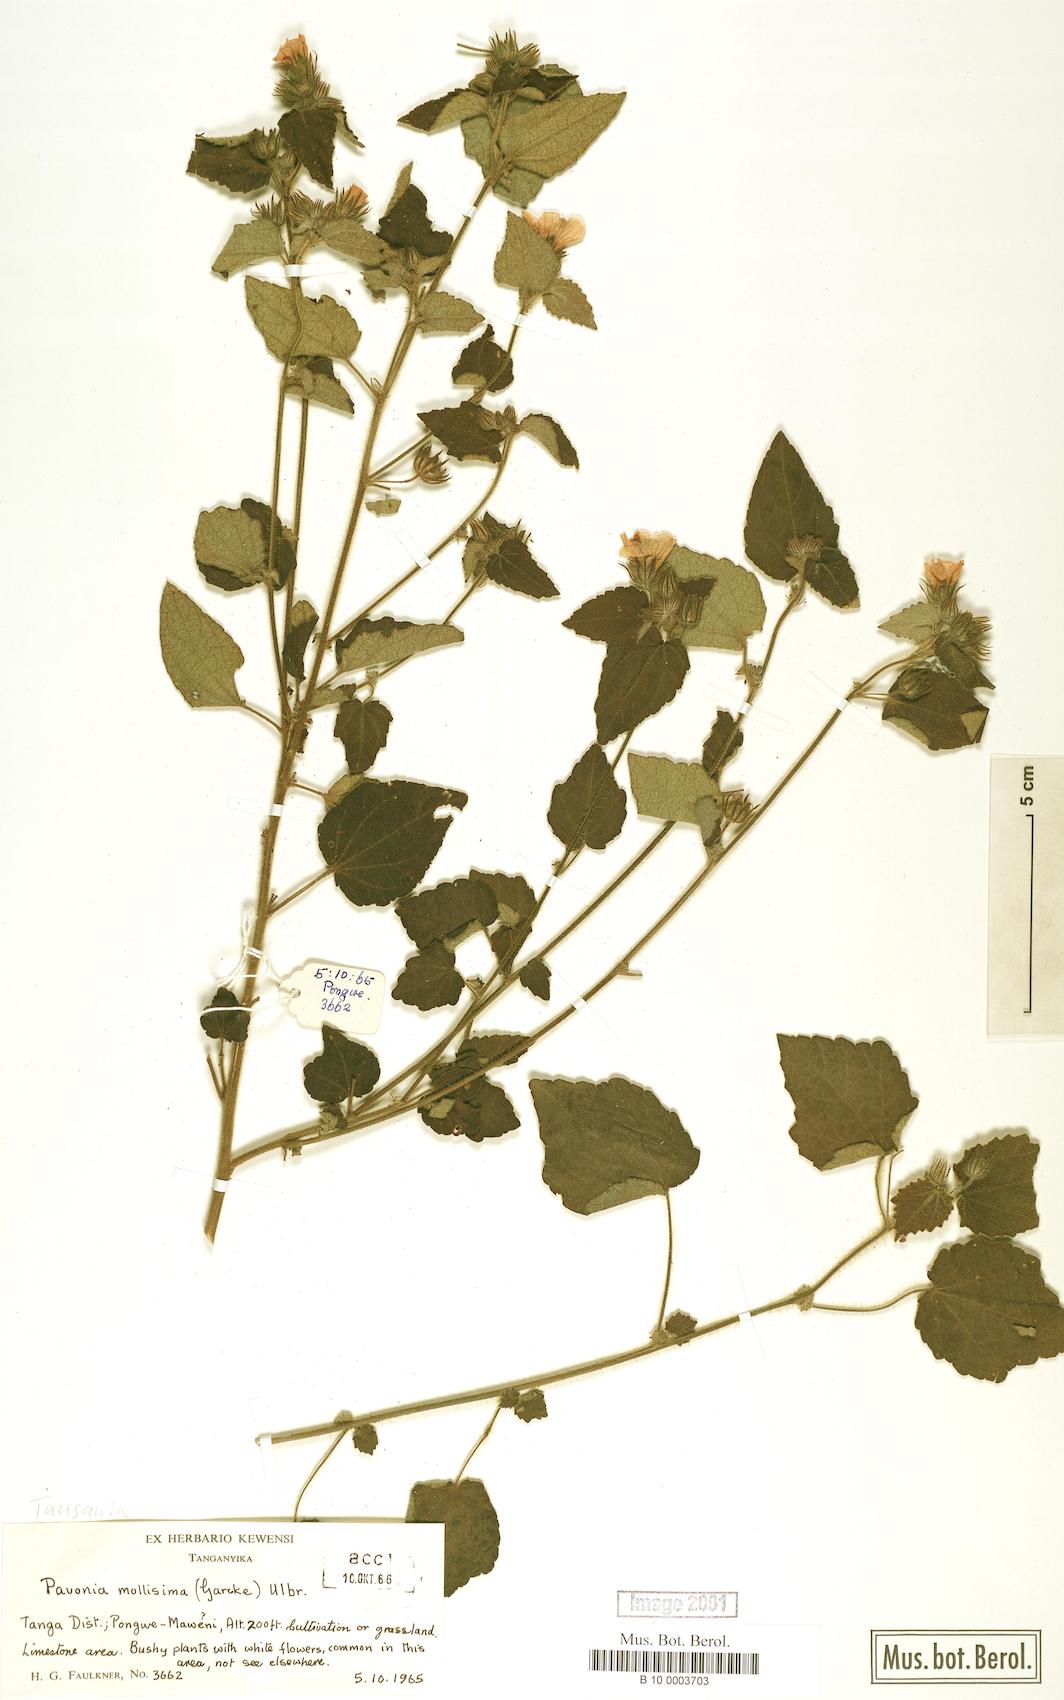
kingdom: Plantae
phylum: Tracheophyta
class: Magnoliopsida
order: Malvales
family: Malvaceae
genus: Pavonia
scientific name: Pavonia mollissima
